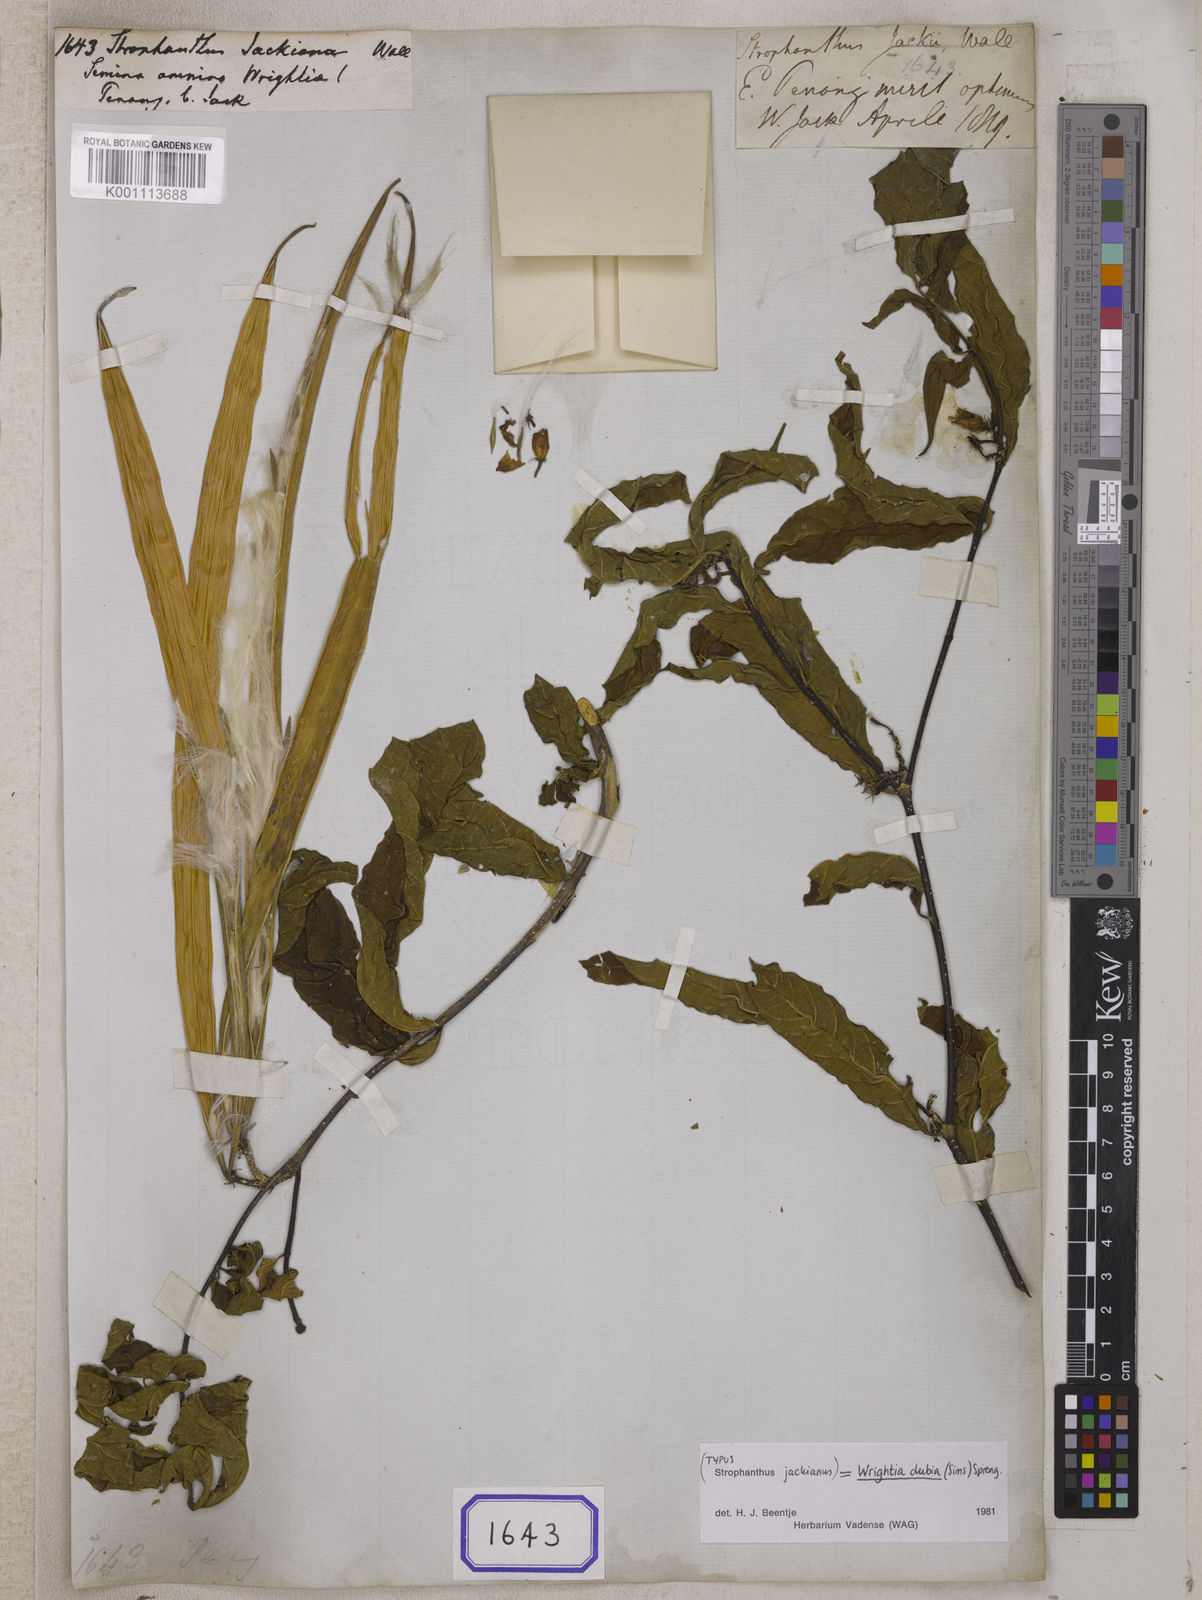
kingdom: Plantae
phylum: Tracheophyta
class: Magnoliopsida
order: Gentianales
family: Apocynaceae
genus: Strophanthus
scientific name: Strophanthus
